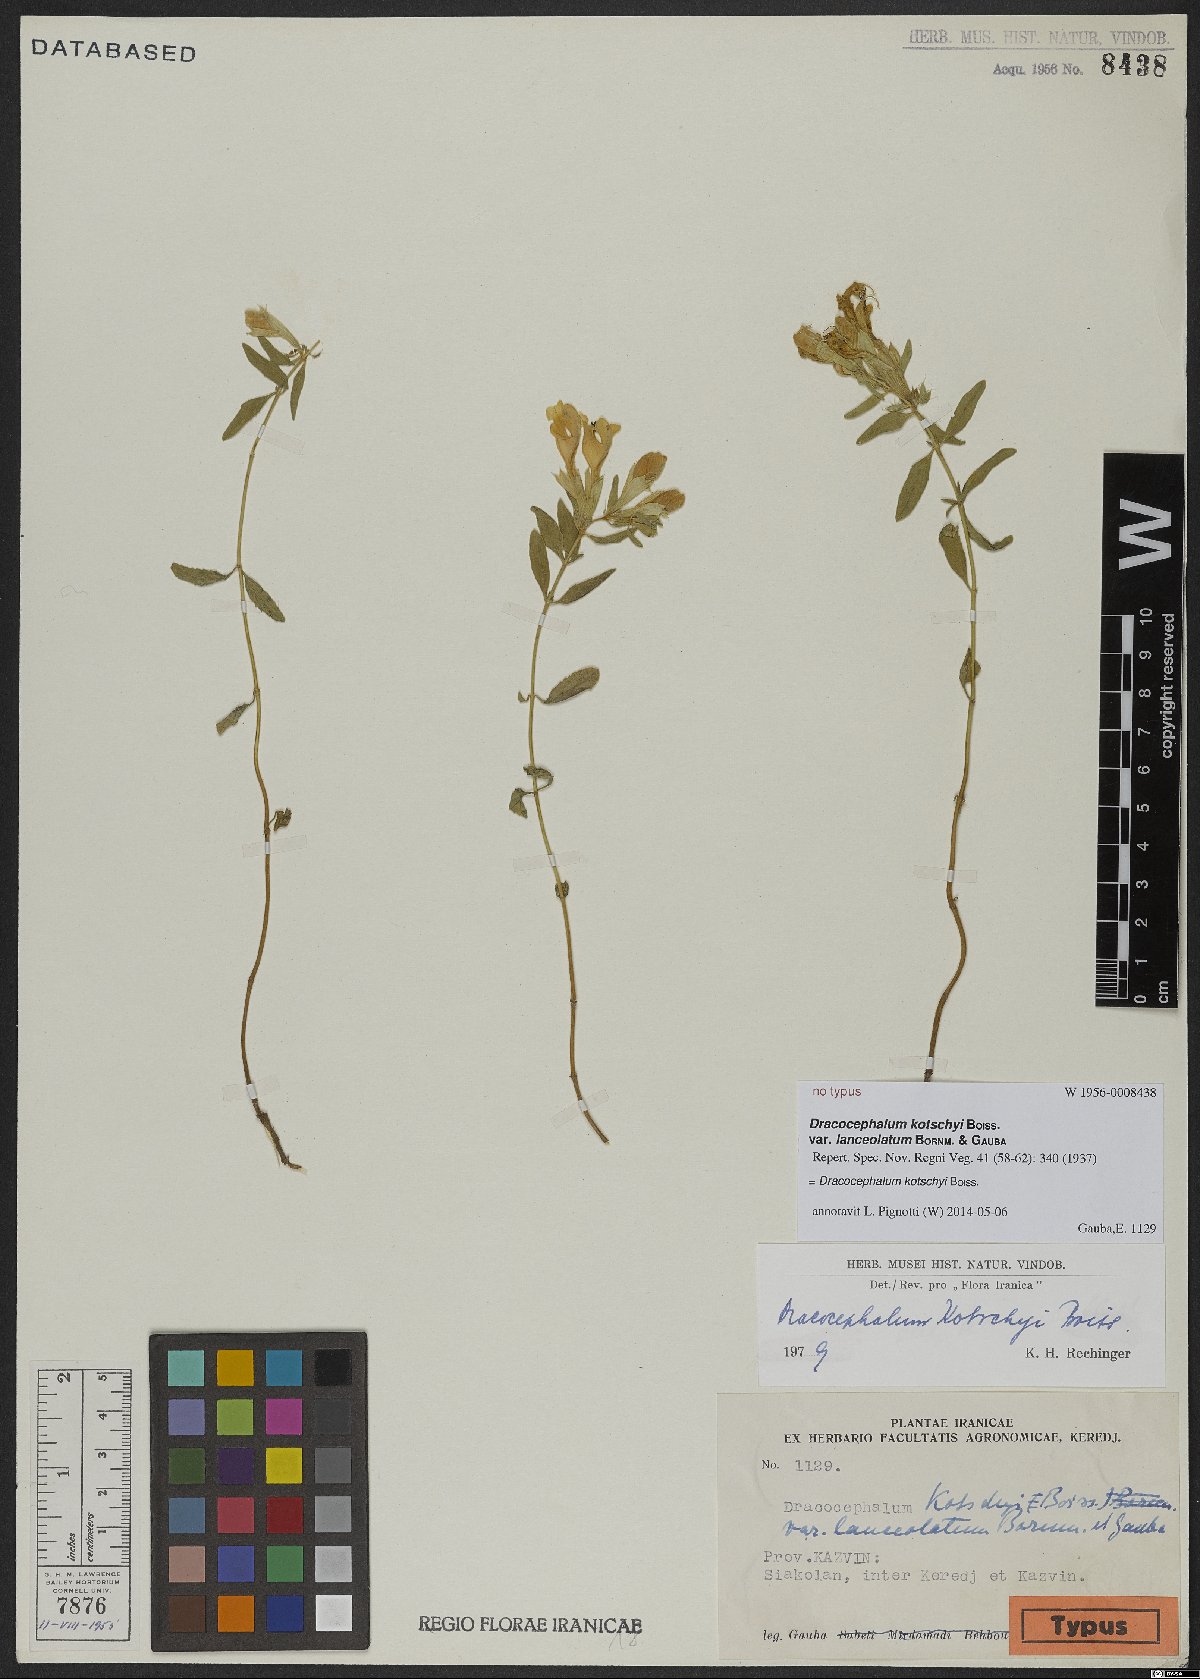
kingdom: Plantae
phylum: Tracheophyta
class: Magnoliopsida
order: Lamiales
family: Lamiaceae
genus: Dracocephalum
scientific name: Dracocephalum kotschyi
